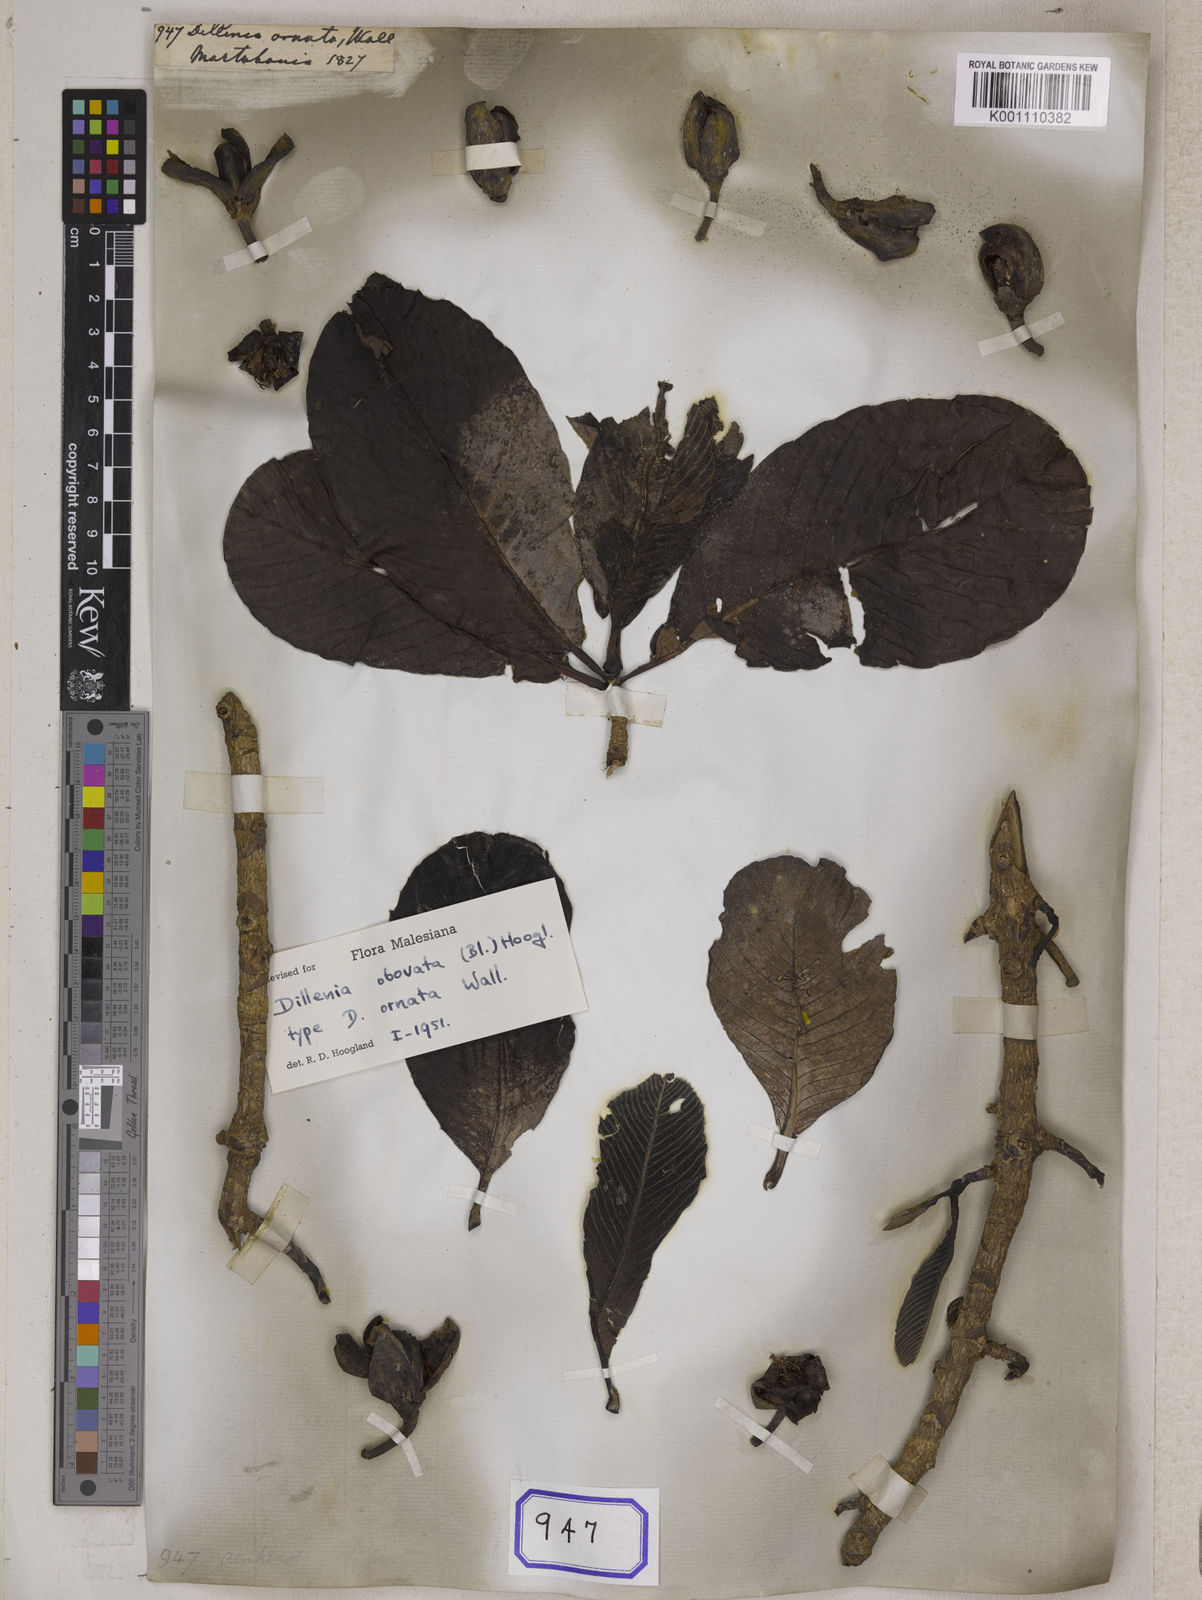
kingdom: Plantae
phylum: Tracheophyta
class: Magnoliopsida
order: Dilleniales
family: Dilleniaceae
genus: Dillenia
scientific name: Dillenia obovata
